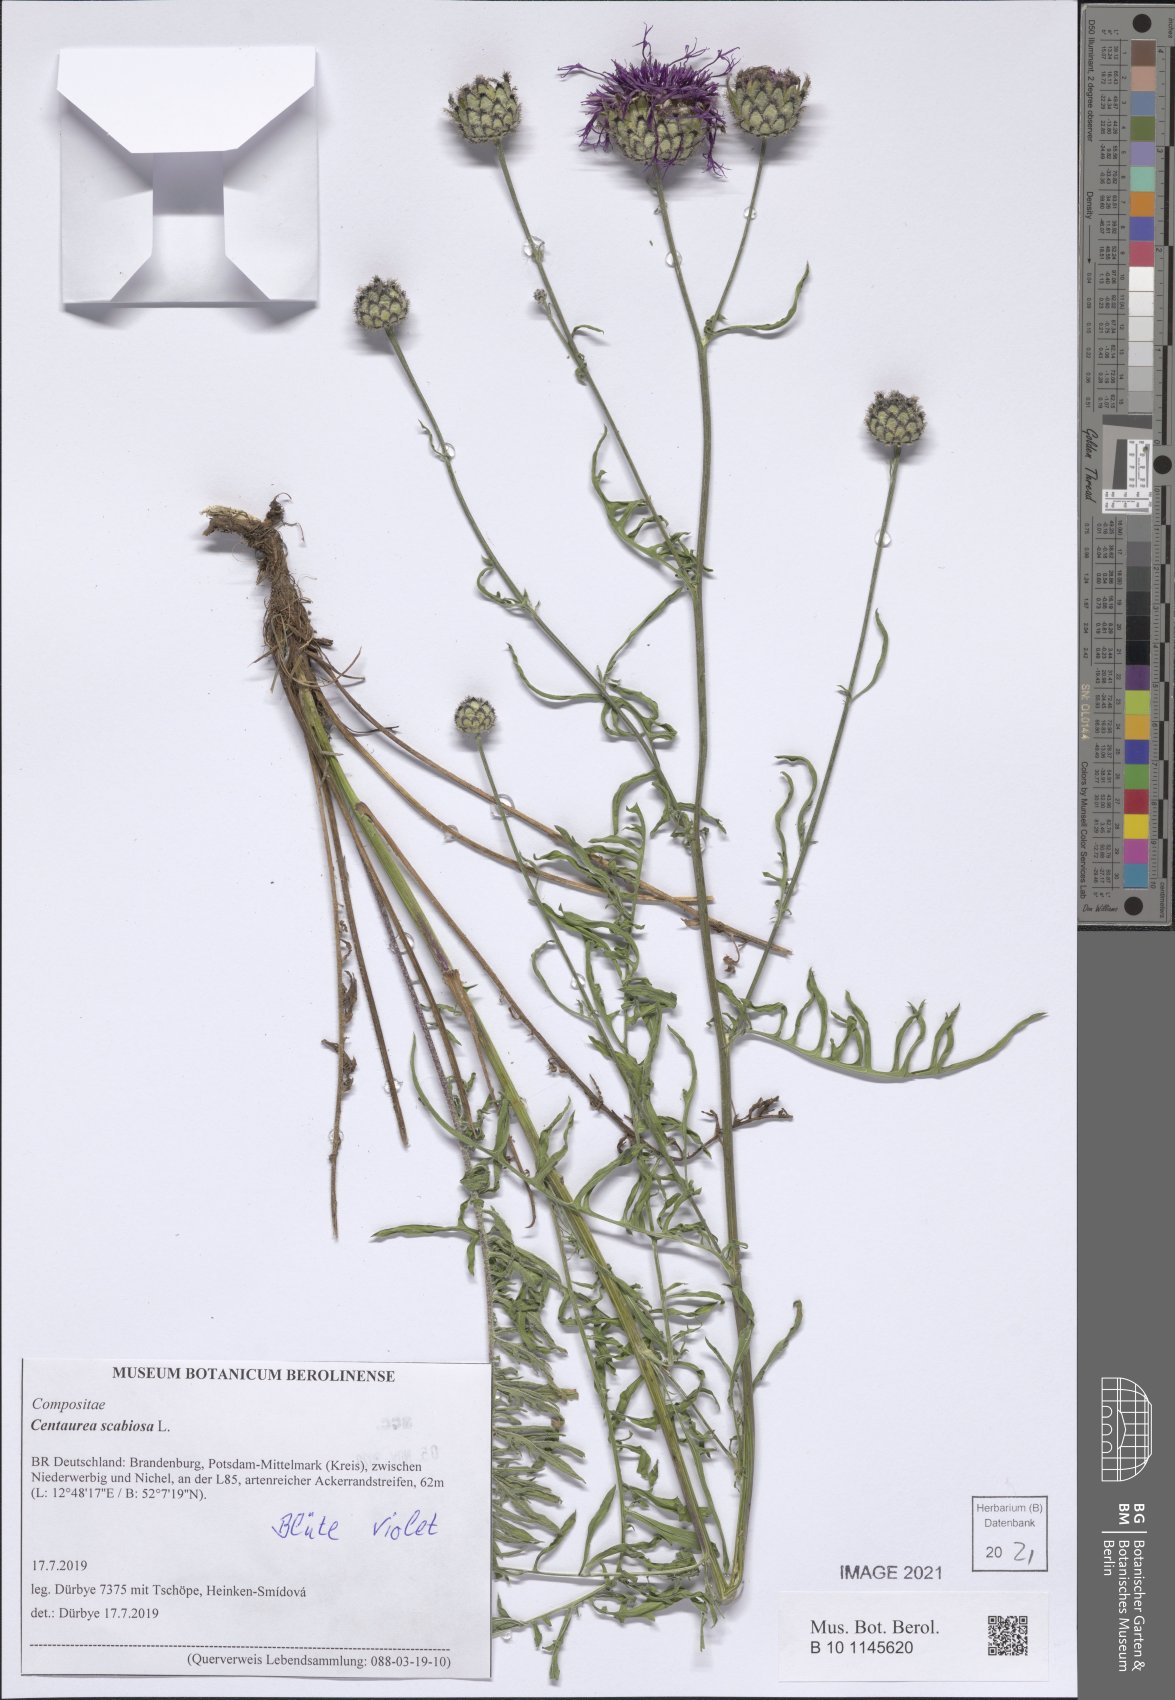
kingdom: Plantae
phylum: Tracheophyta
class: Magnoliopsida
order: Asterales
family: Asteraceae
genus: Centaurea
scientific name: Centaurea scabiosa
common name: Greater knapweed
